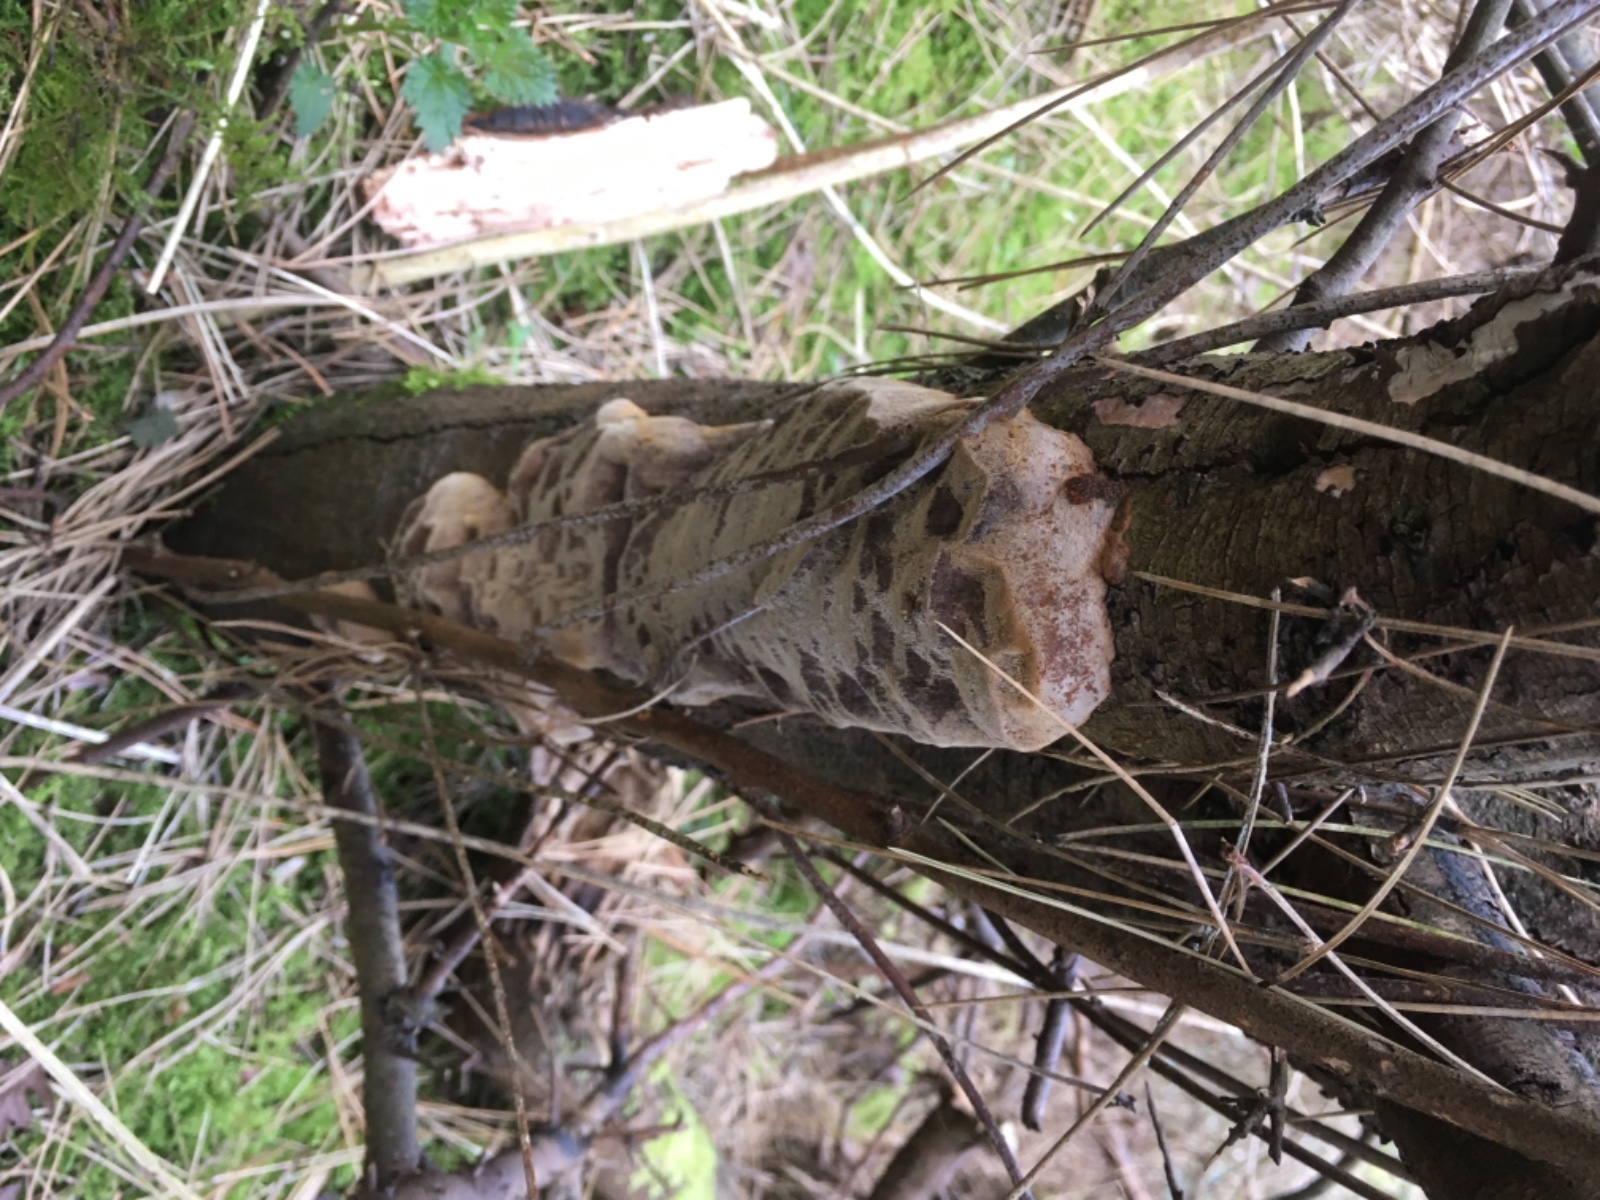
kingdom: Fungi
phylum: Basidiomycota
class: Agaricomycetes
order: Hymenochaetales
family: Hymenochaetaceae
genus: Phellinus
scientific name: Phellinus pomaceus
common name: blomme-ildporesvamp
